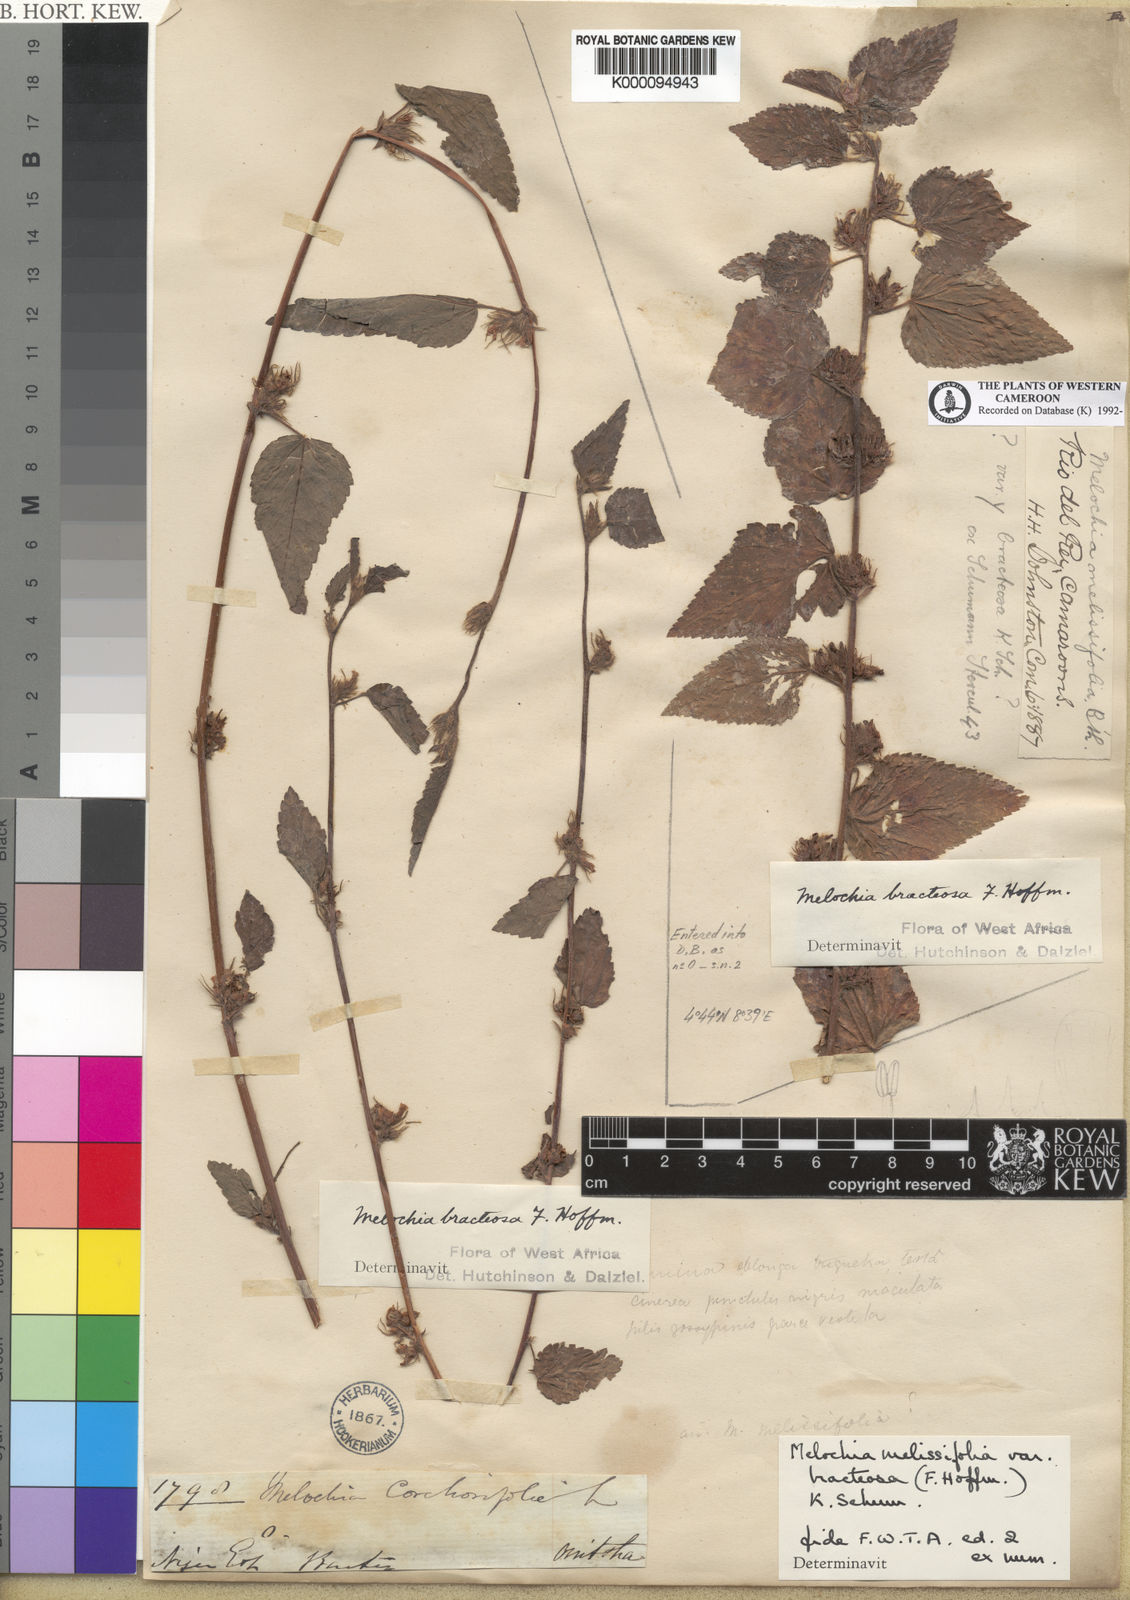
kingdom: Plantae
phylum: Tracheophyta
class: Magnoliopsida
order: Malvales
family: Malvaceae
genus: Melochia
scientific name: Melochia melissifolia
